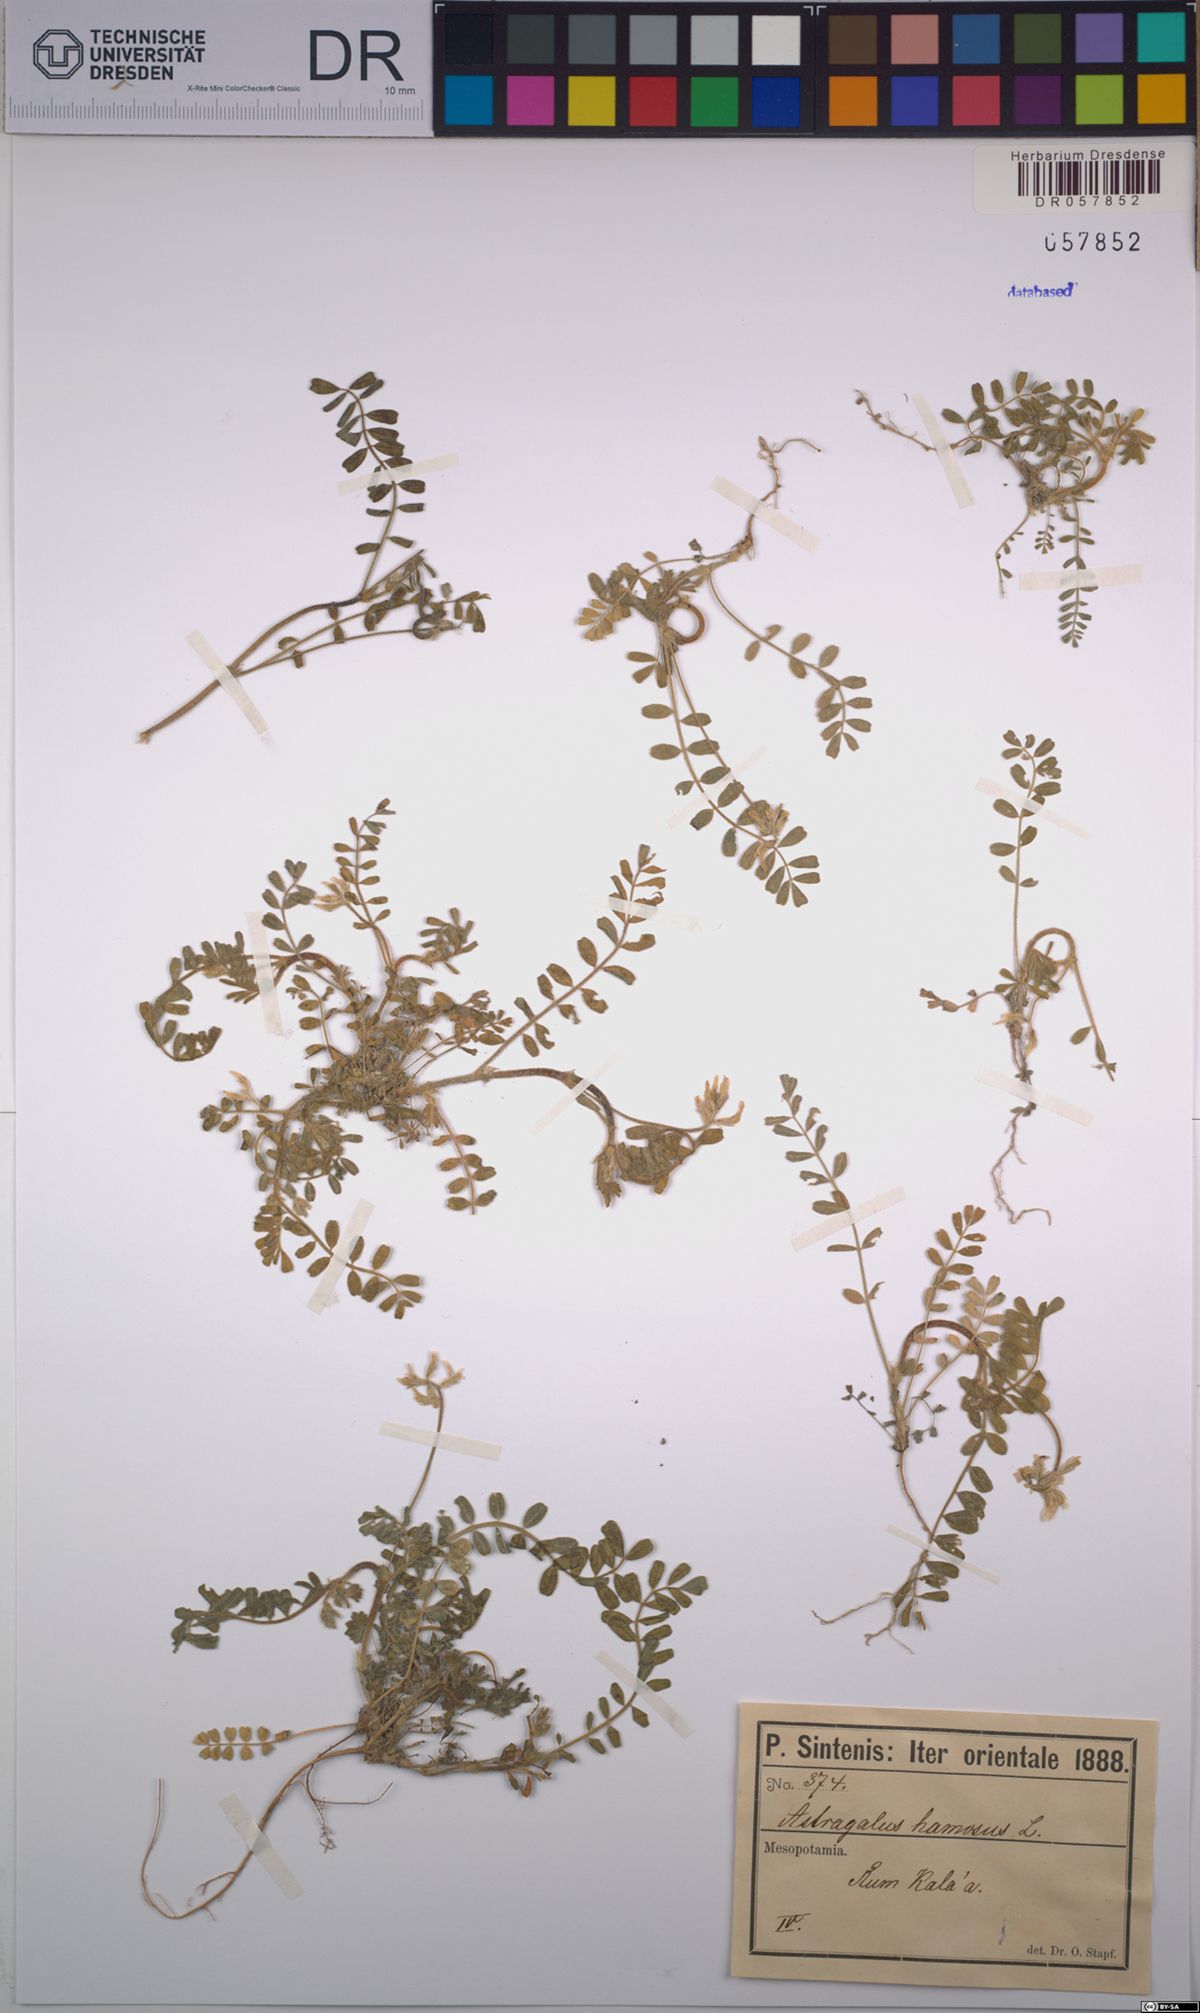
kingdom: Plantae
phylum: Tracheophyta
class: Magnoliopsida
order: Fabales
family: Fabaceae
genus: Astragalus
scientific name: Astragalus hamosus
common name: European milkvetch
